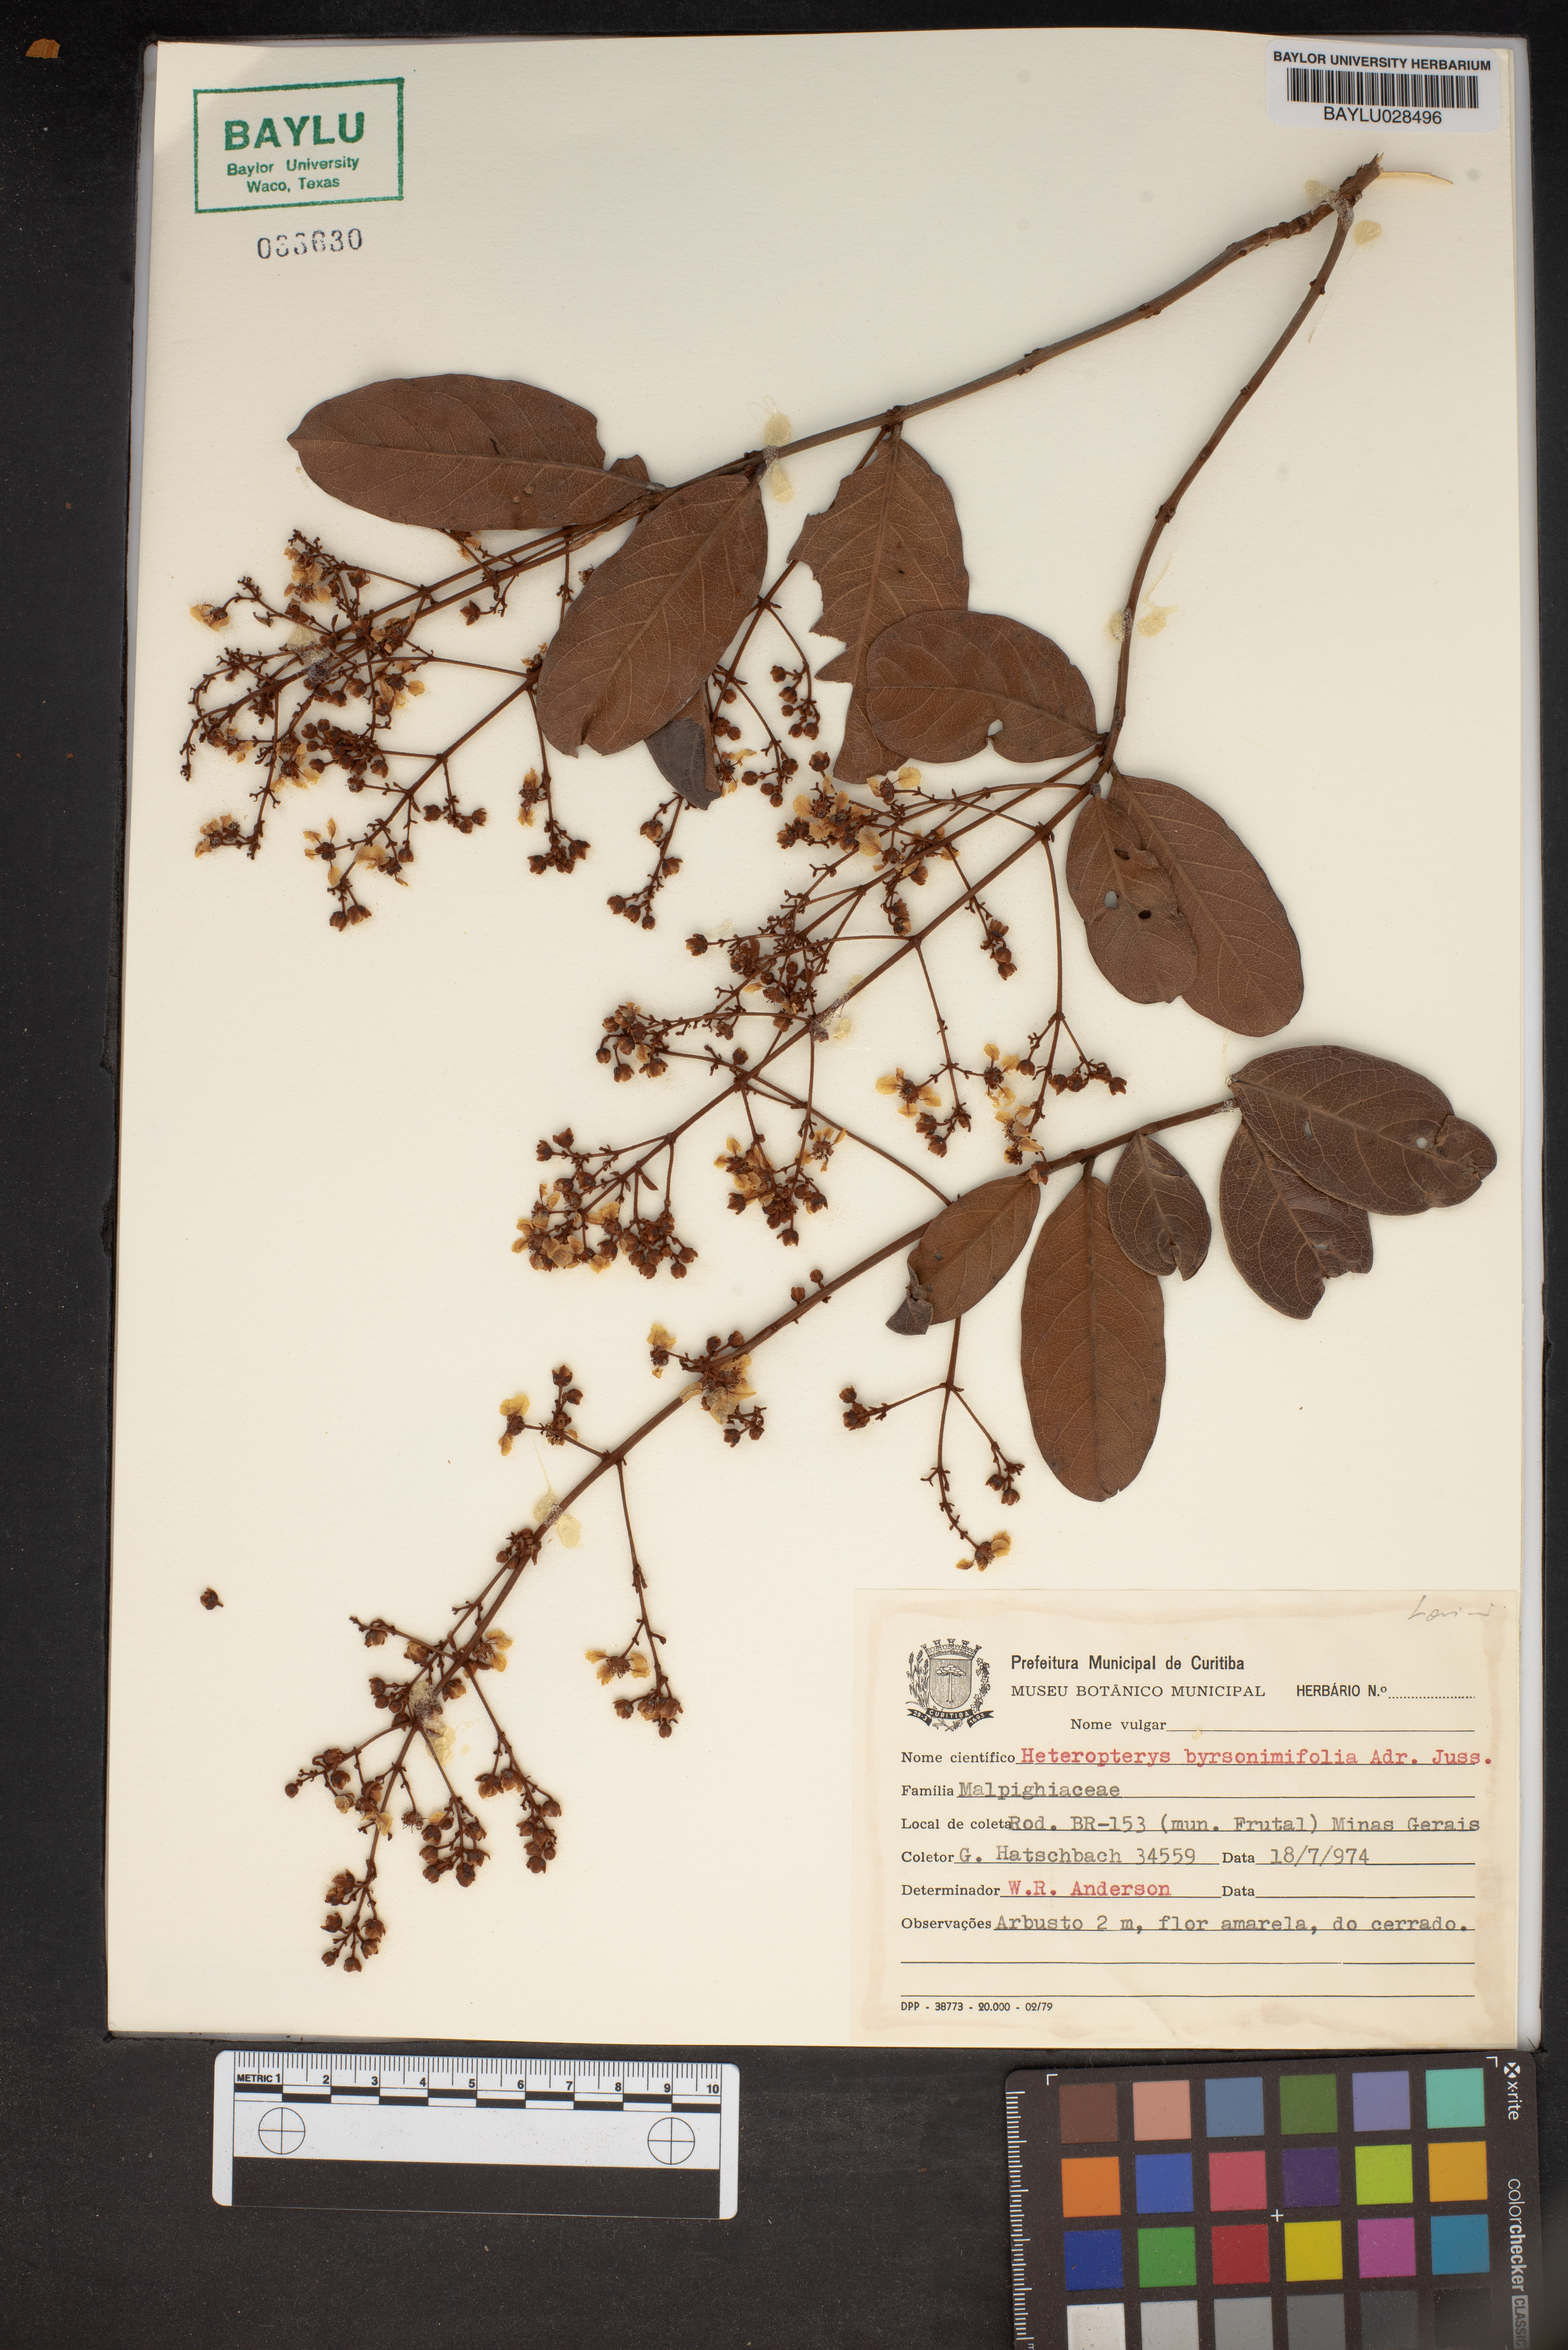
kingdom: Plantae
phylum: Tracheophyta
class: Magnoliopsida
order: Malpighiales
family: Malpighiaceae
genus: Heteropterys
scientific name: Heteropterys byrsonimifolia
